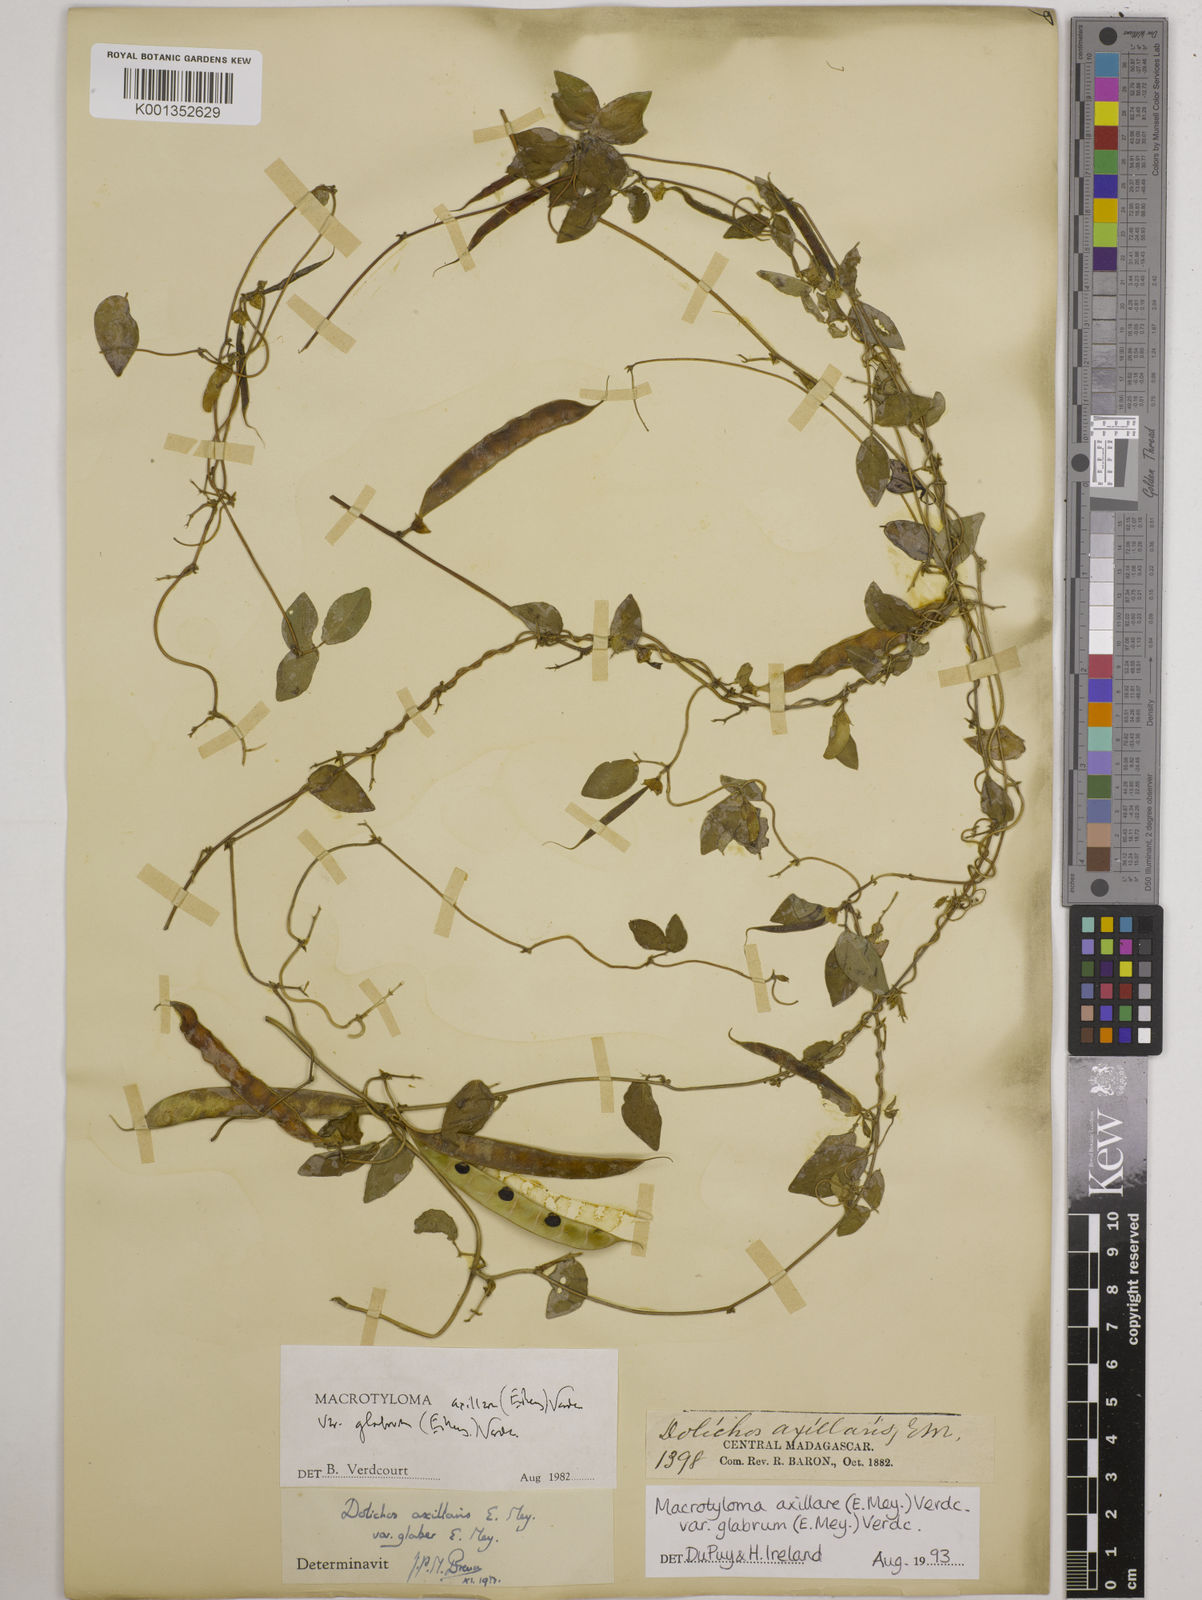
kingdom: Plantae
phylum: Tracheophyta
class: Magnoliopsida
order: Fabales
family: Fabaceae
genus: Macrotyloma
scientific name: Macrotyloma
